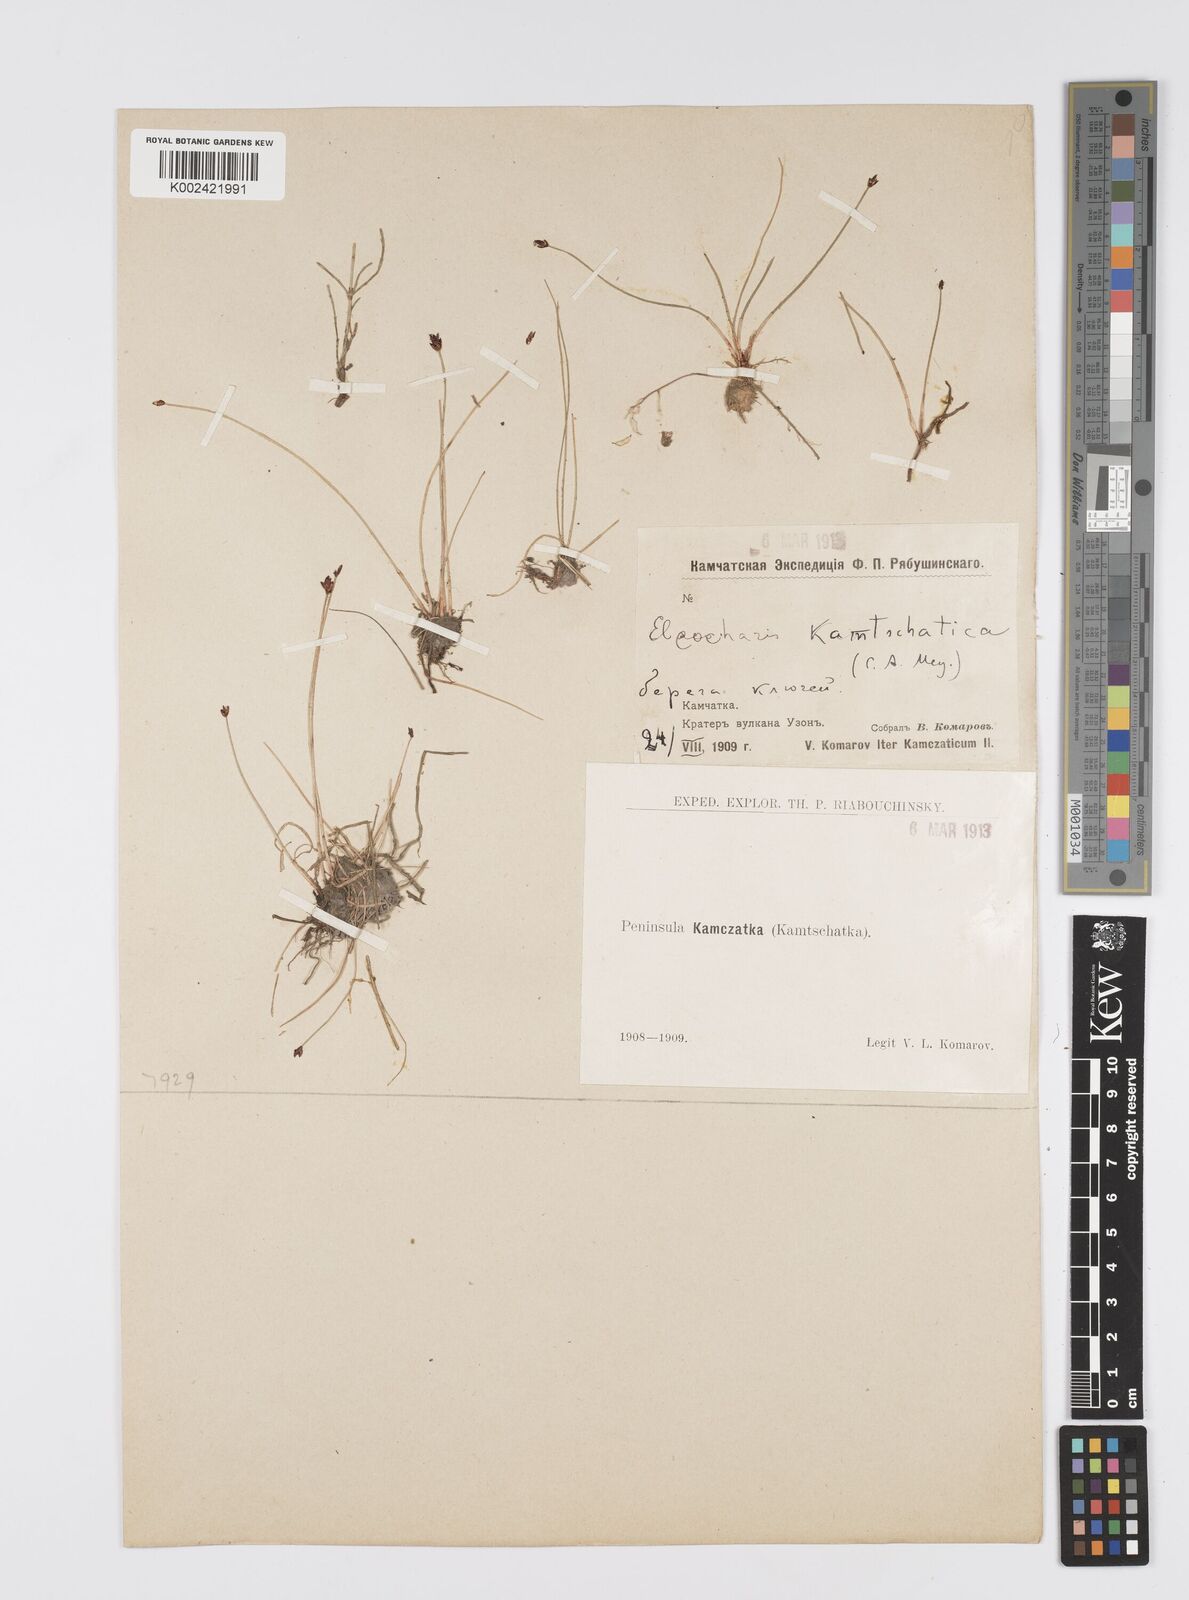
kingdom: Plantae
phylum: Tracheophyta
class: Liliopsida
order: Poales
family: Cyperaceae
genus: Eleocharis
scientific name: Eleocharis kamtschatica
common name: Kamchatka spikerush
